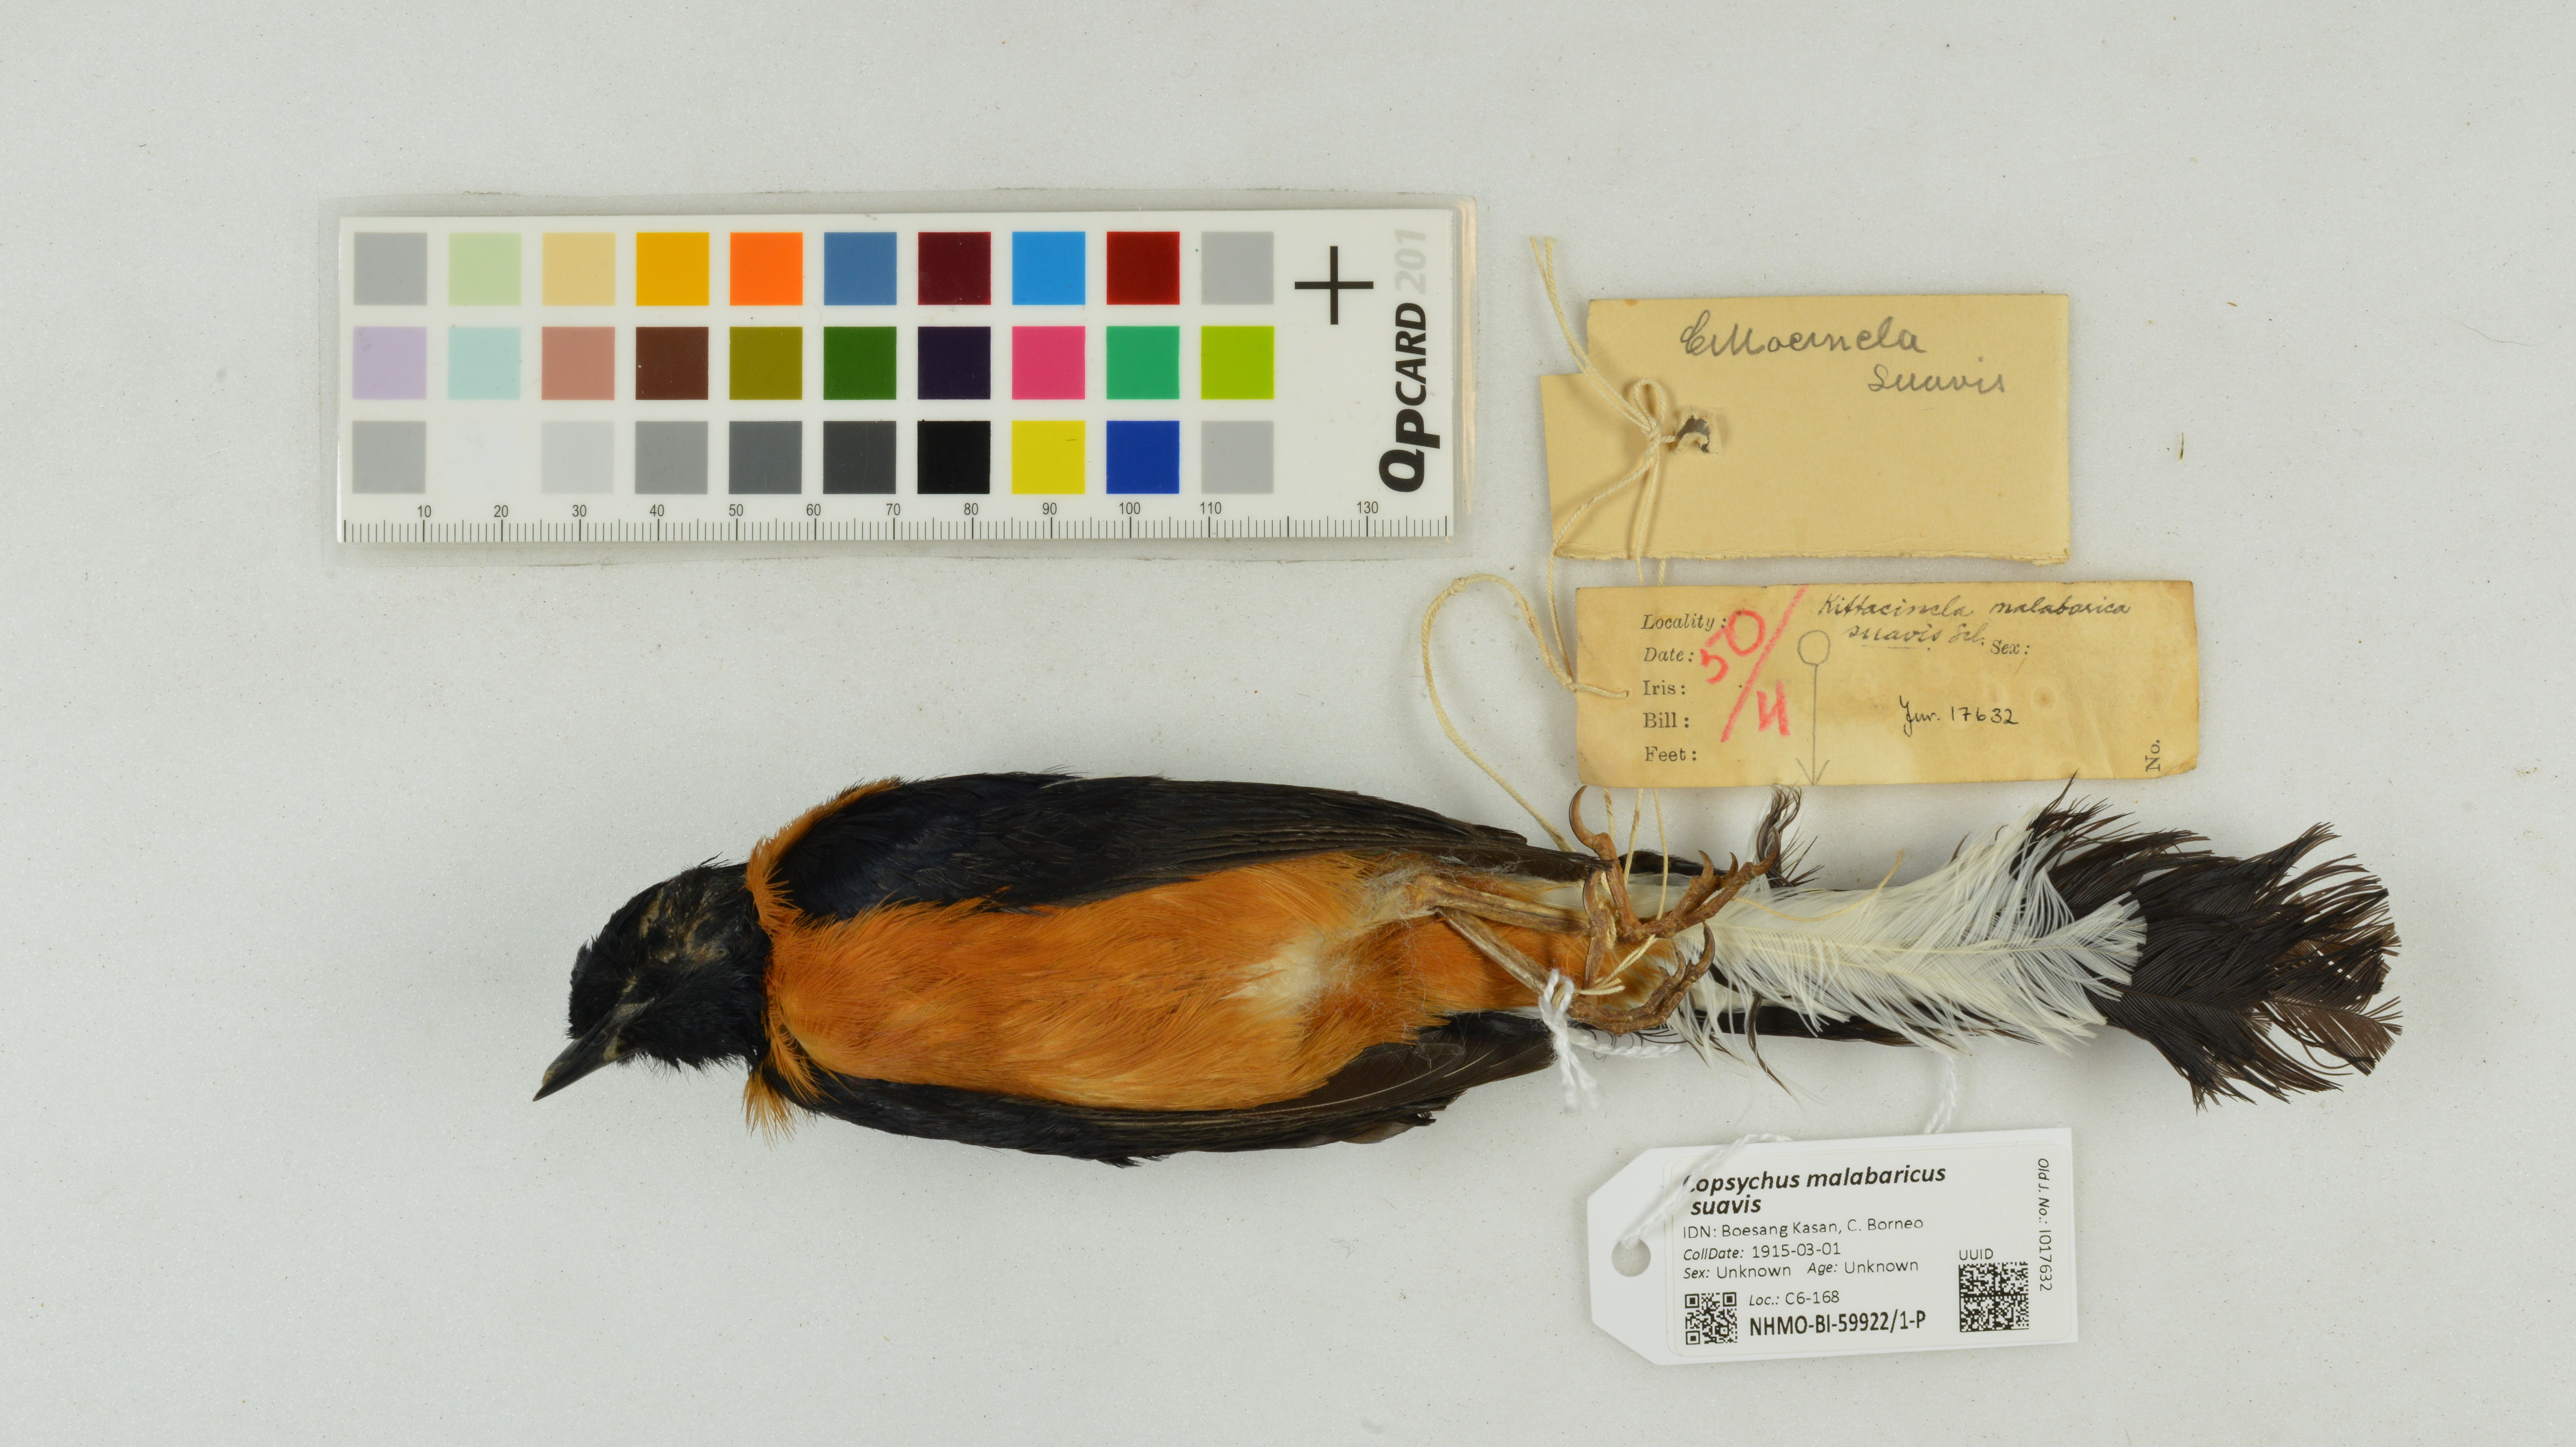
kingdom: Animalia
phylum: Chordata
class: Aves
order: Passeriformes
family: Muscicapidae
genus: Copsychus
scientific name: Copsychus malabaricus
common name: White-rumped shama
